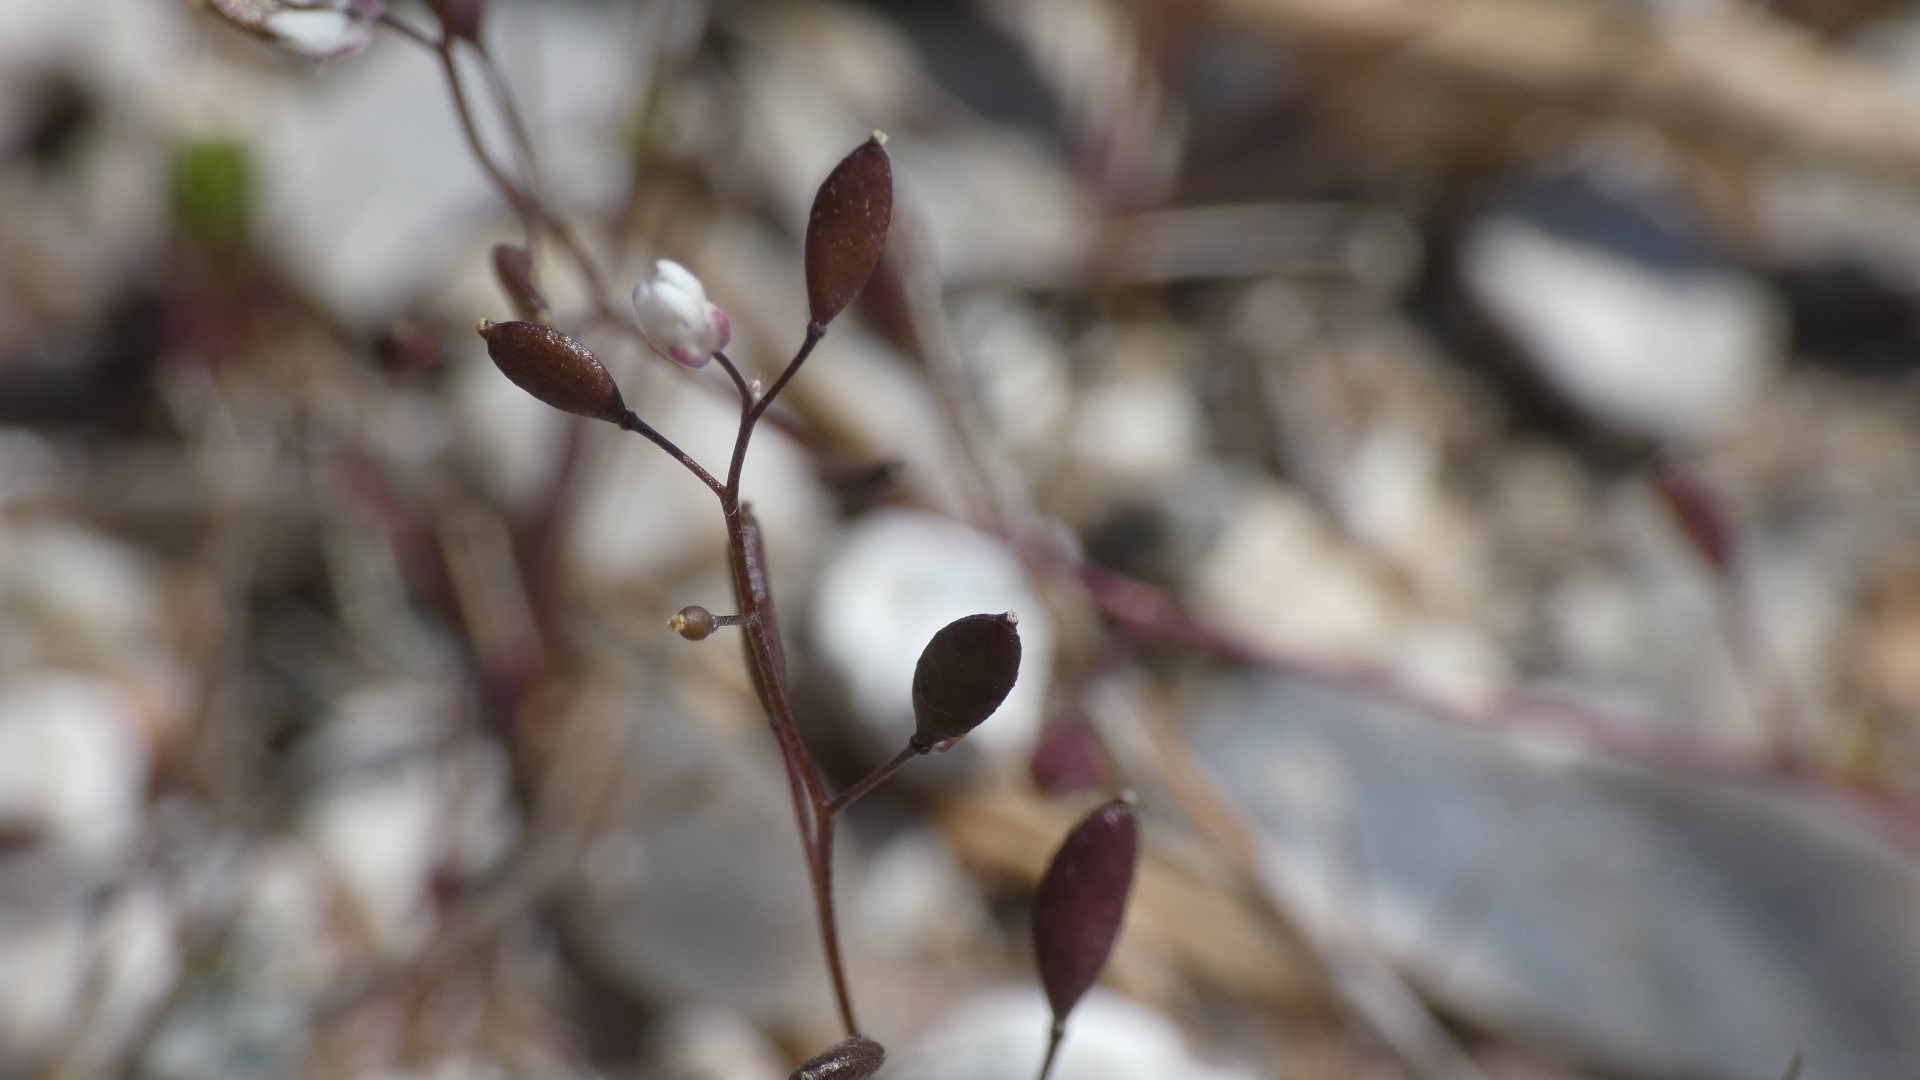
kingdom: Plantae
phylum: Tracheophyta
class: Magnoliopsida
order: Brassicales
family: Brassicaceae
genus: Draba
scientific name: Draba verna
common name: Vår-gæslingeblomst
